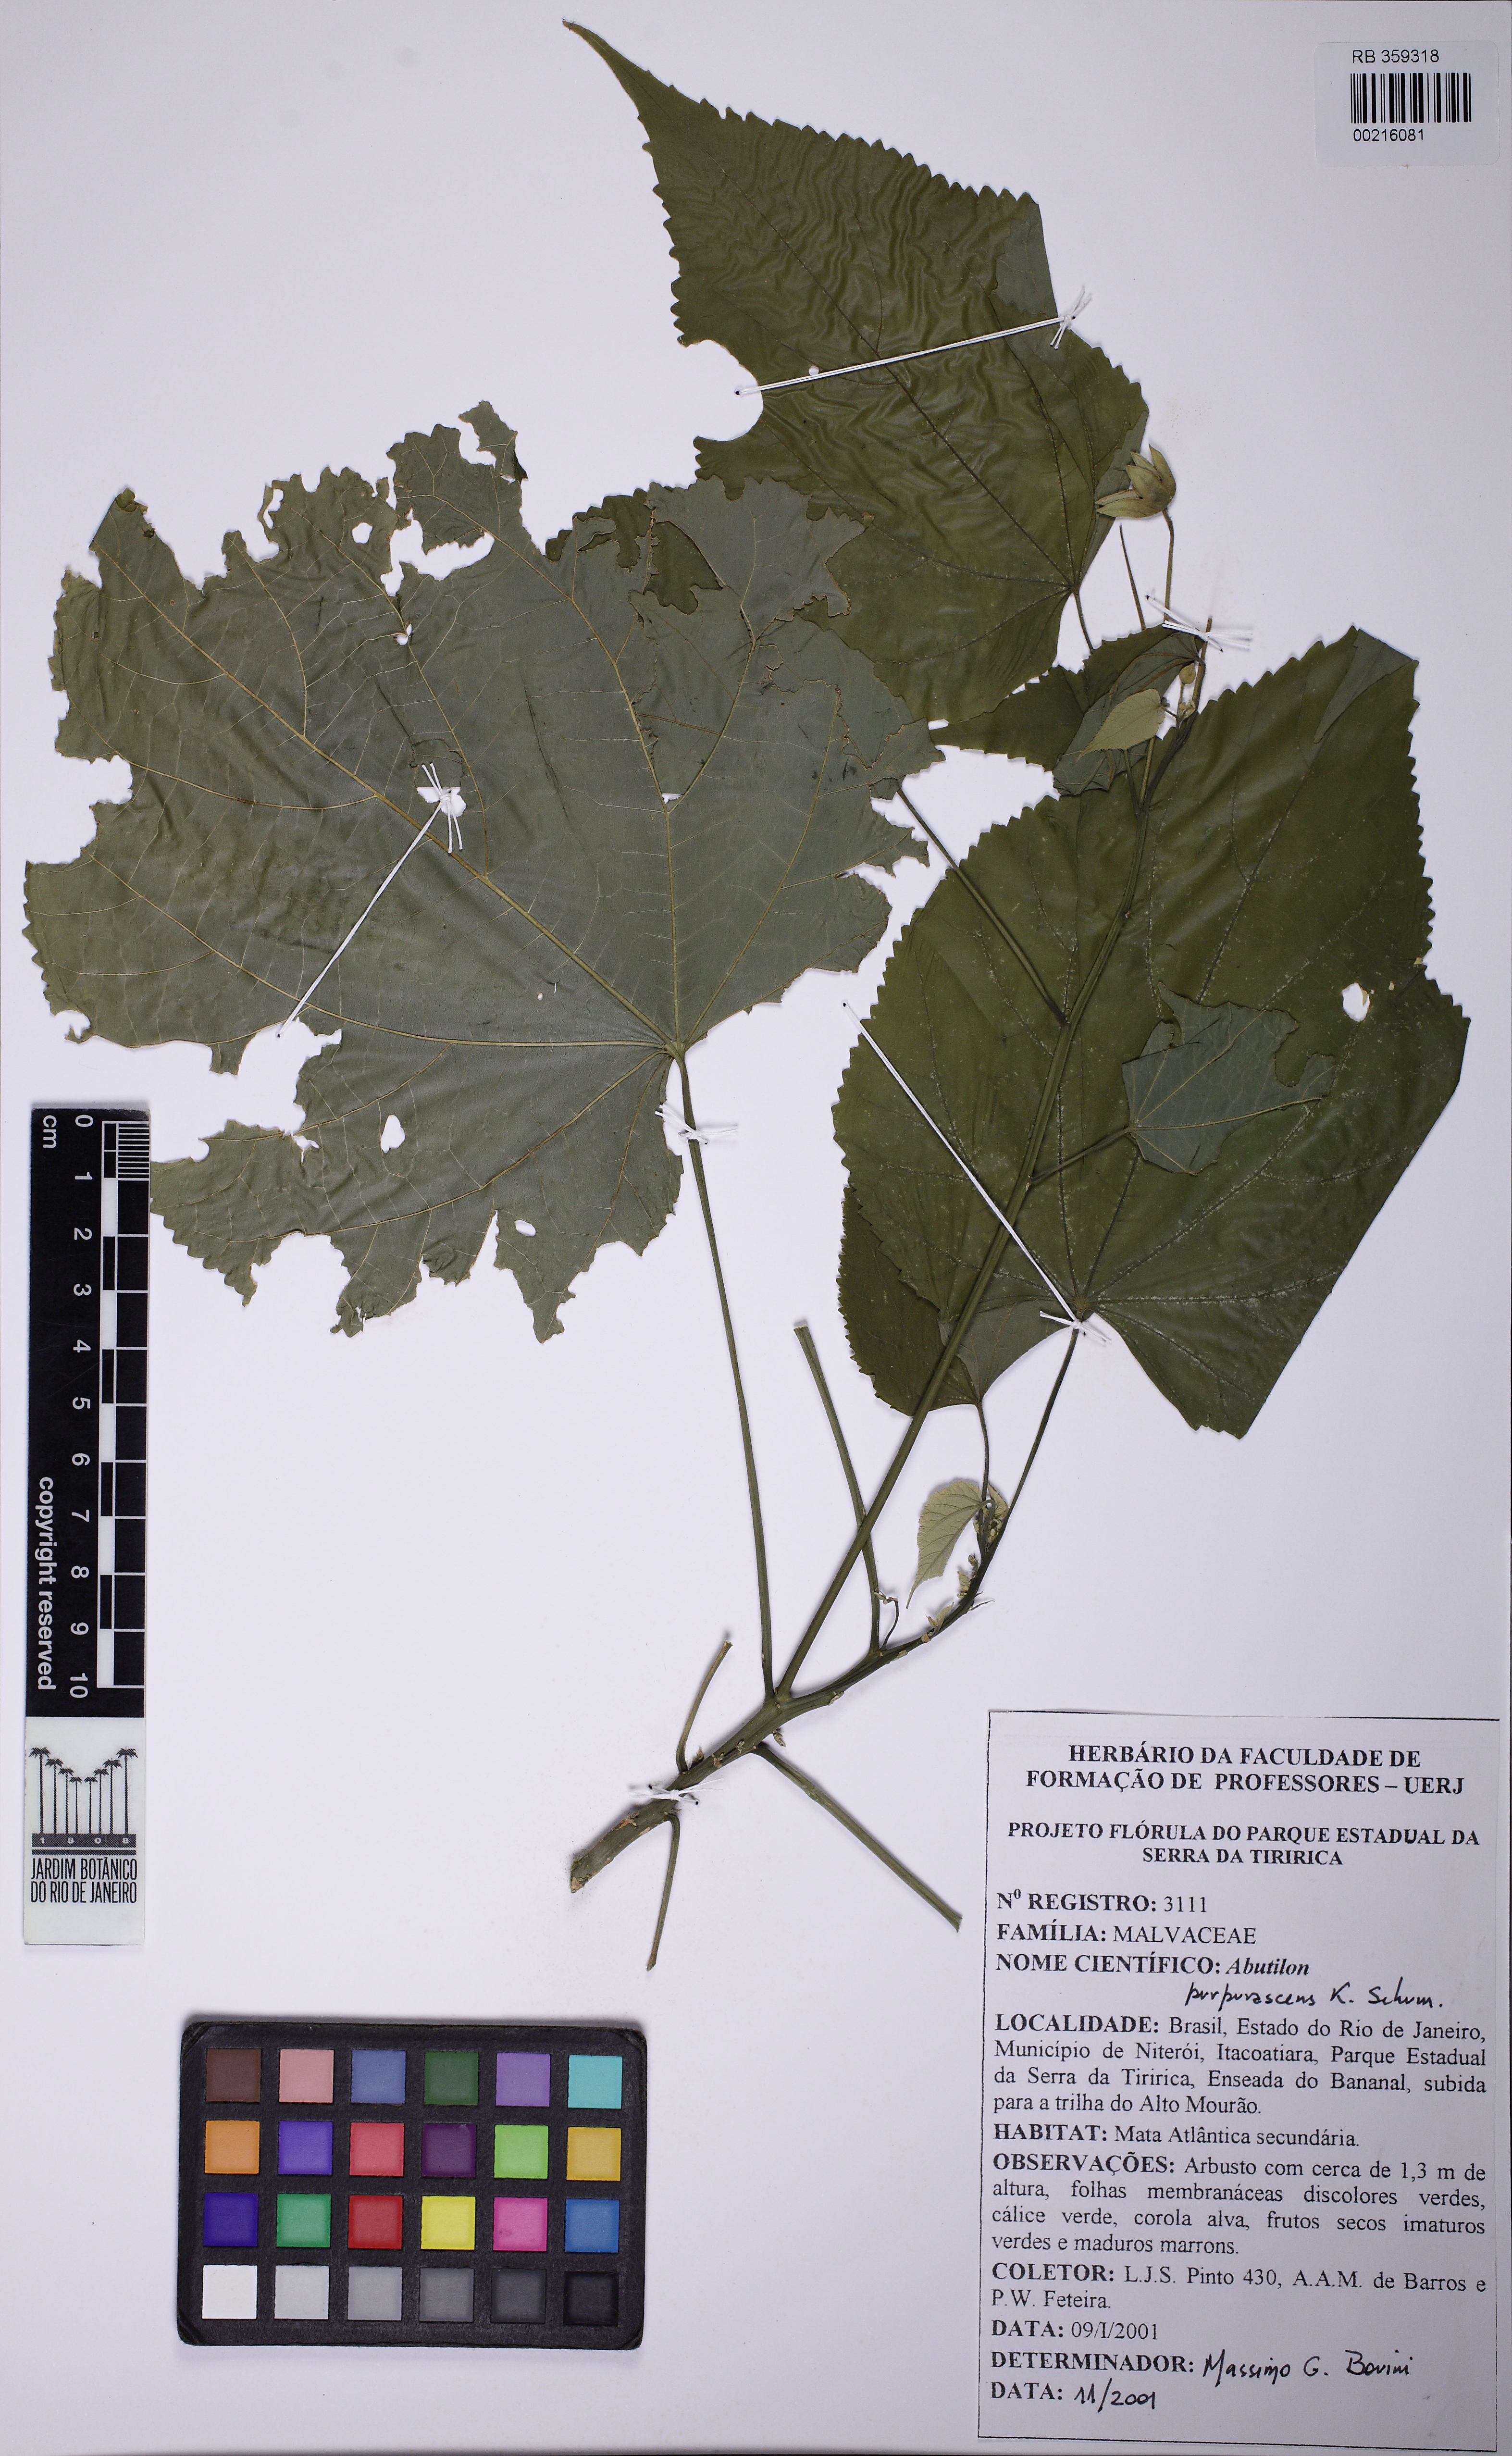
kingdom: Plantae
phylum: Tracheophyta
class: Magnoliopsida
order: Malvales
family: Malvaceae
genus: Bakeridesia
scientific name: Bakeridesia esculenta
